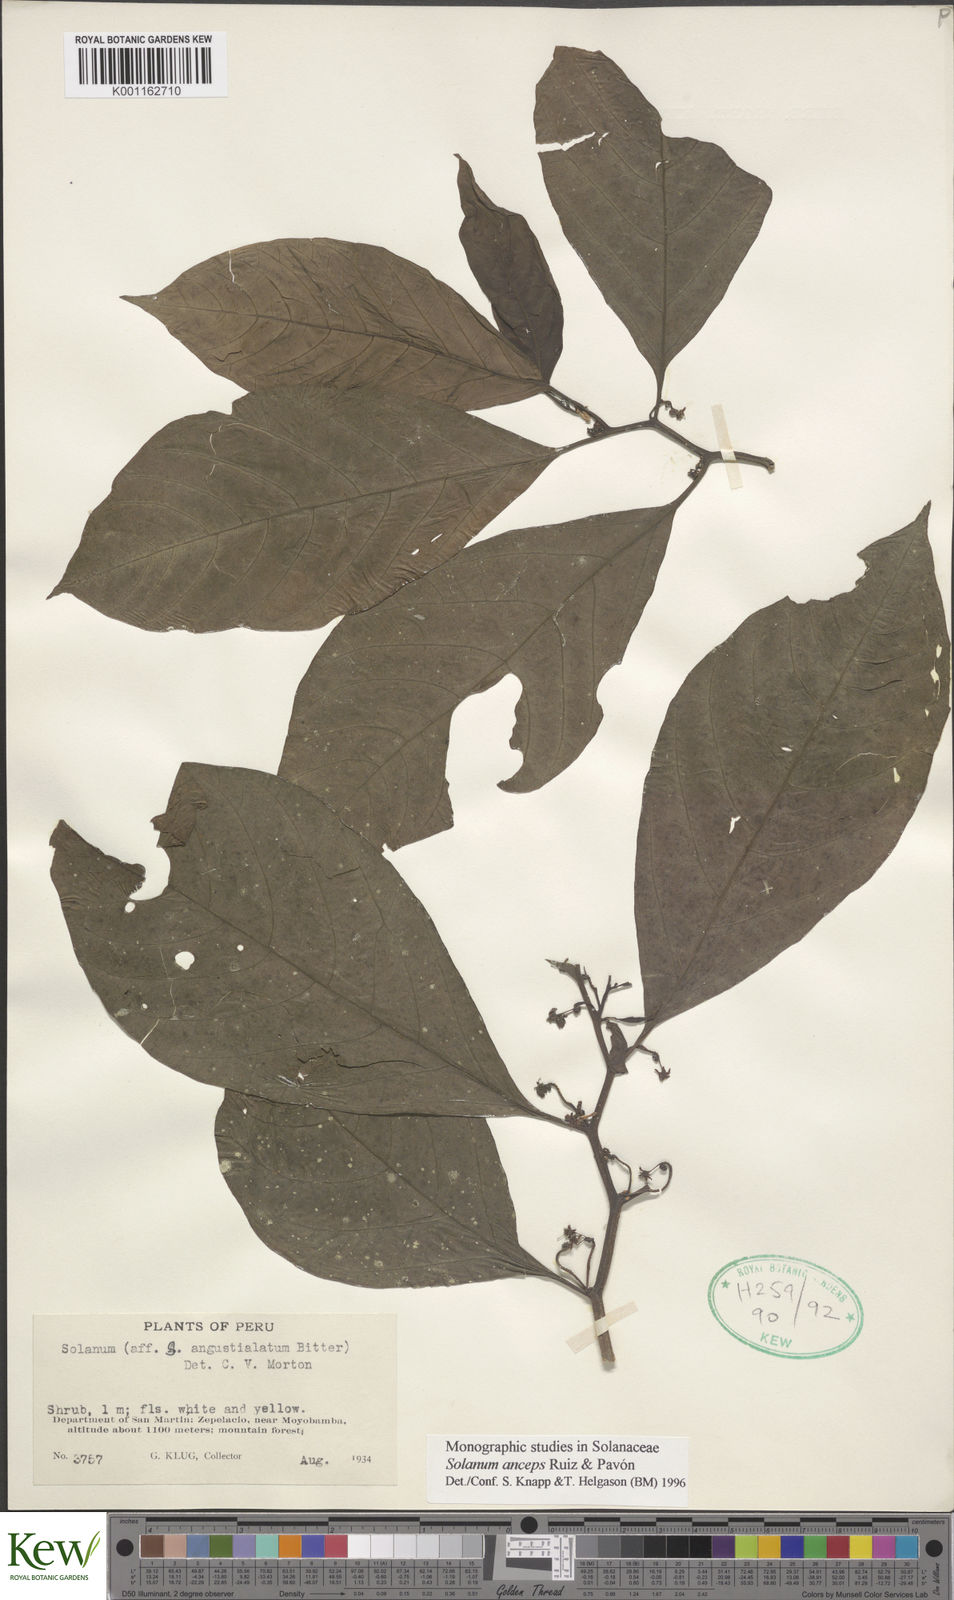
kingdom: Plantae
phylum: Tracheophyta
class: Magnoliopsida
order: Solanales
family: Solanaceae
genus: Solanum
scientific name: Solanum anceps
